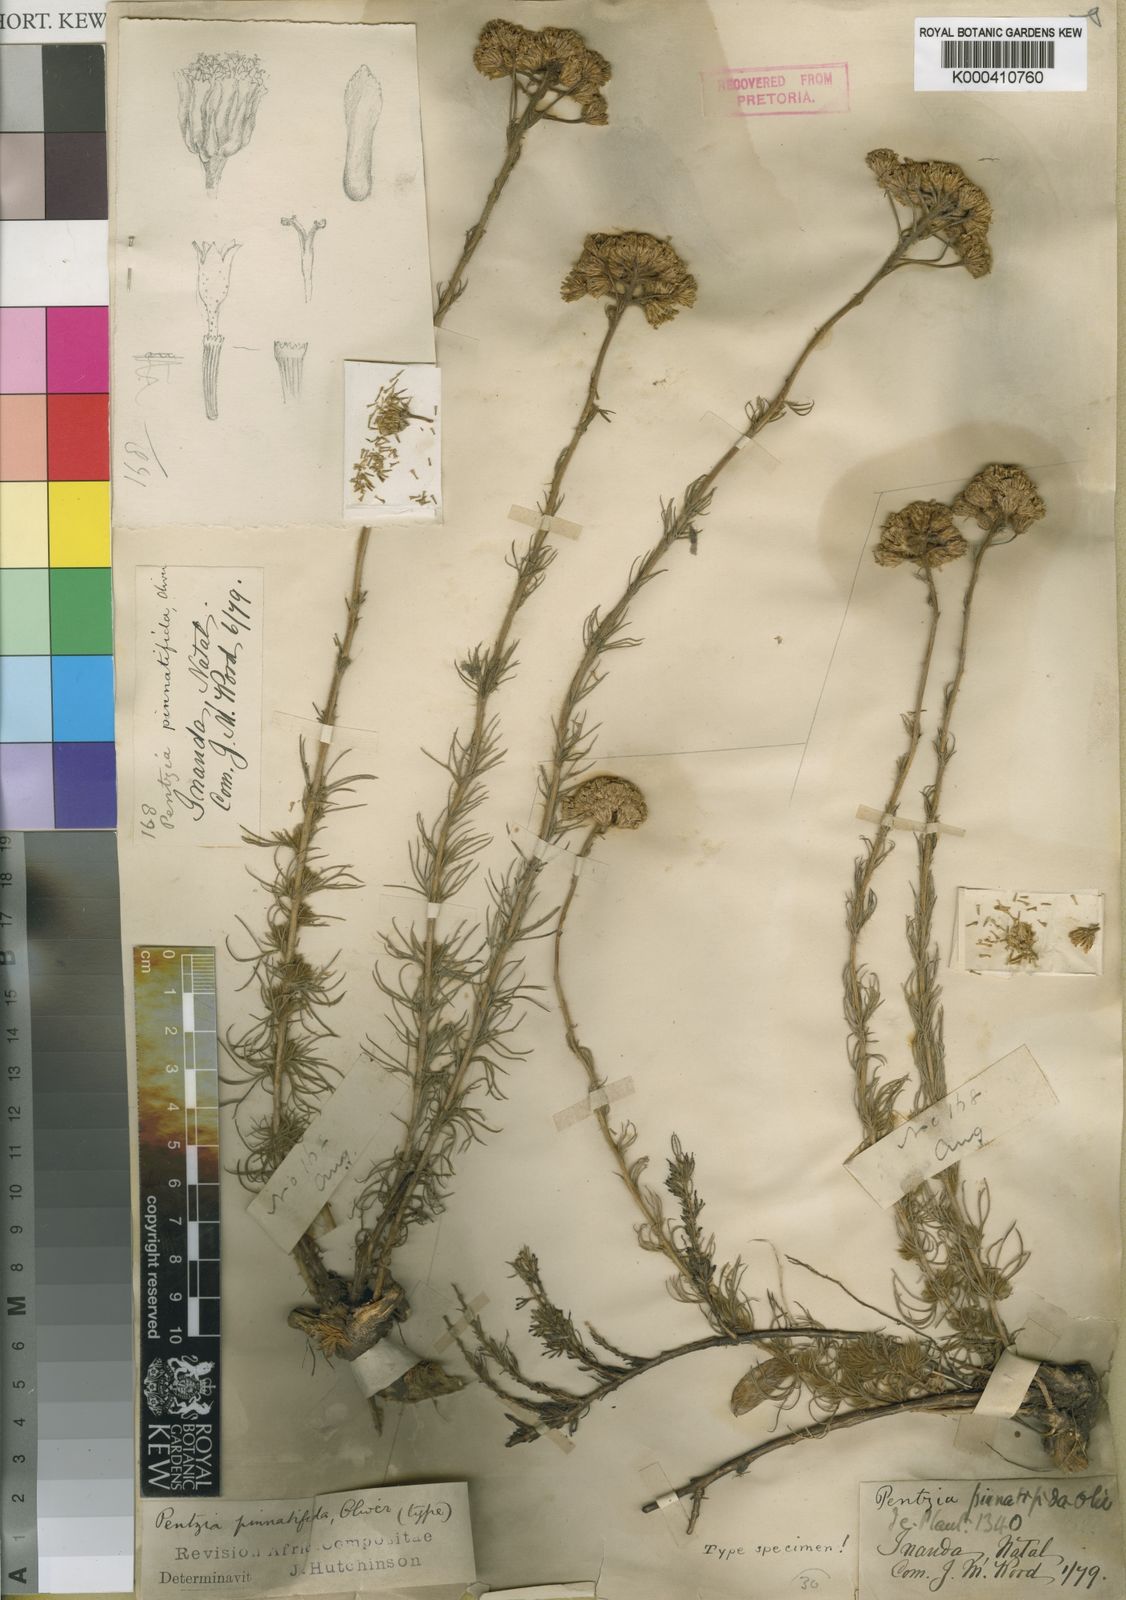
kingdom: Plantae
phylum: Tracheophyta
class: Magnoliopsida
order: Asterales
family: Asteraceae
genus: Phymaspermum
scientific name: Phymaspermum
